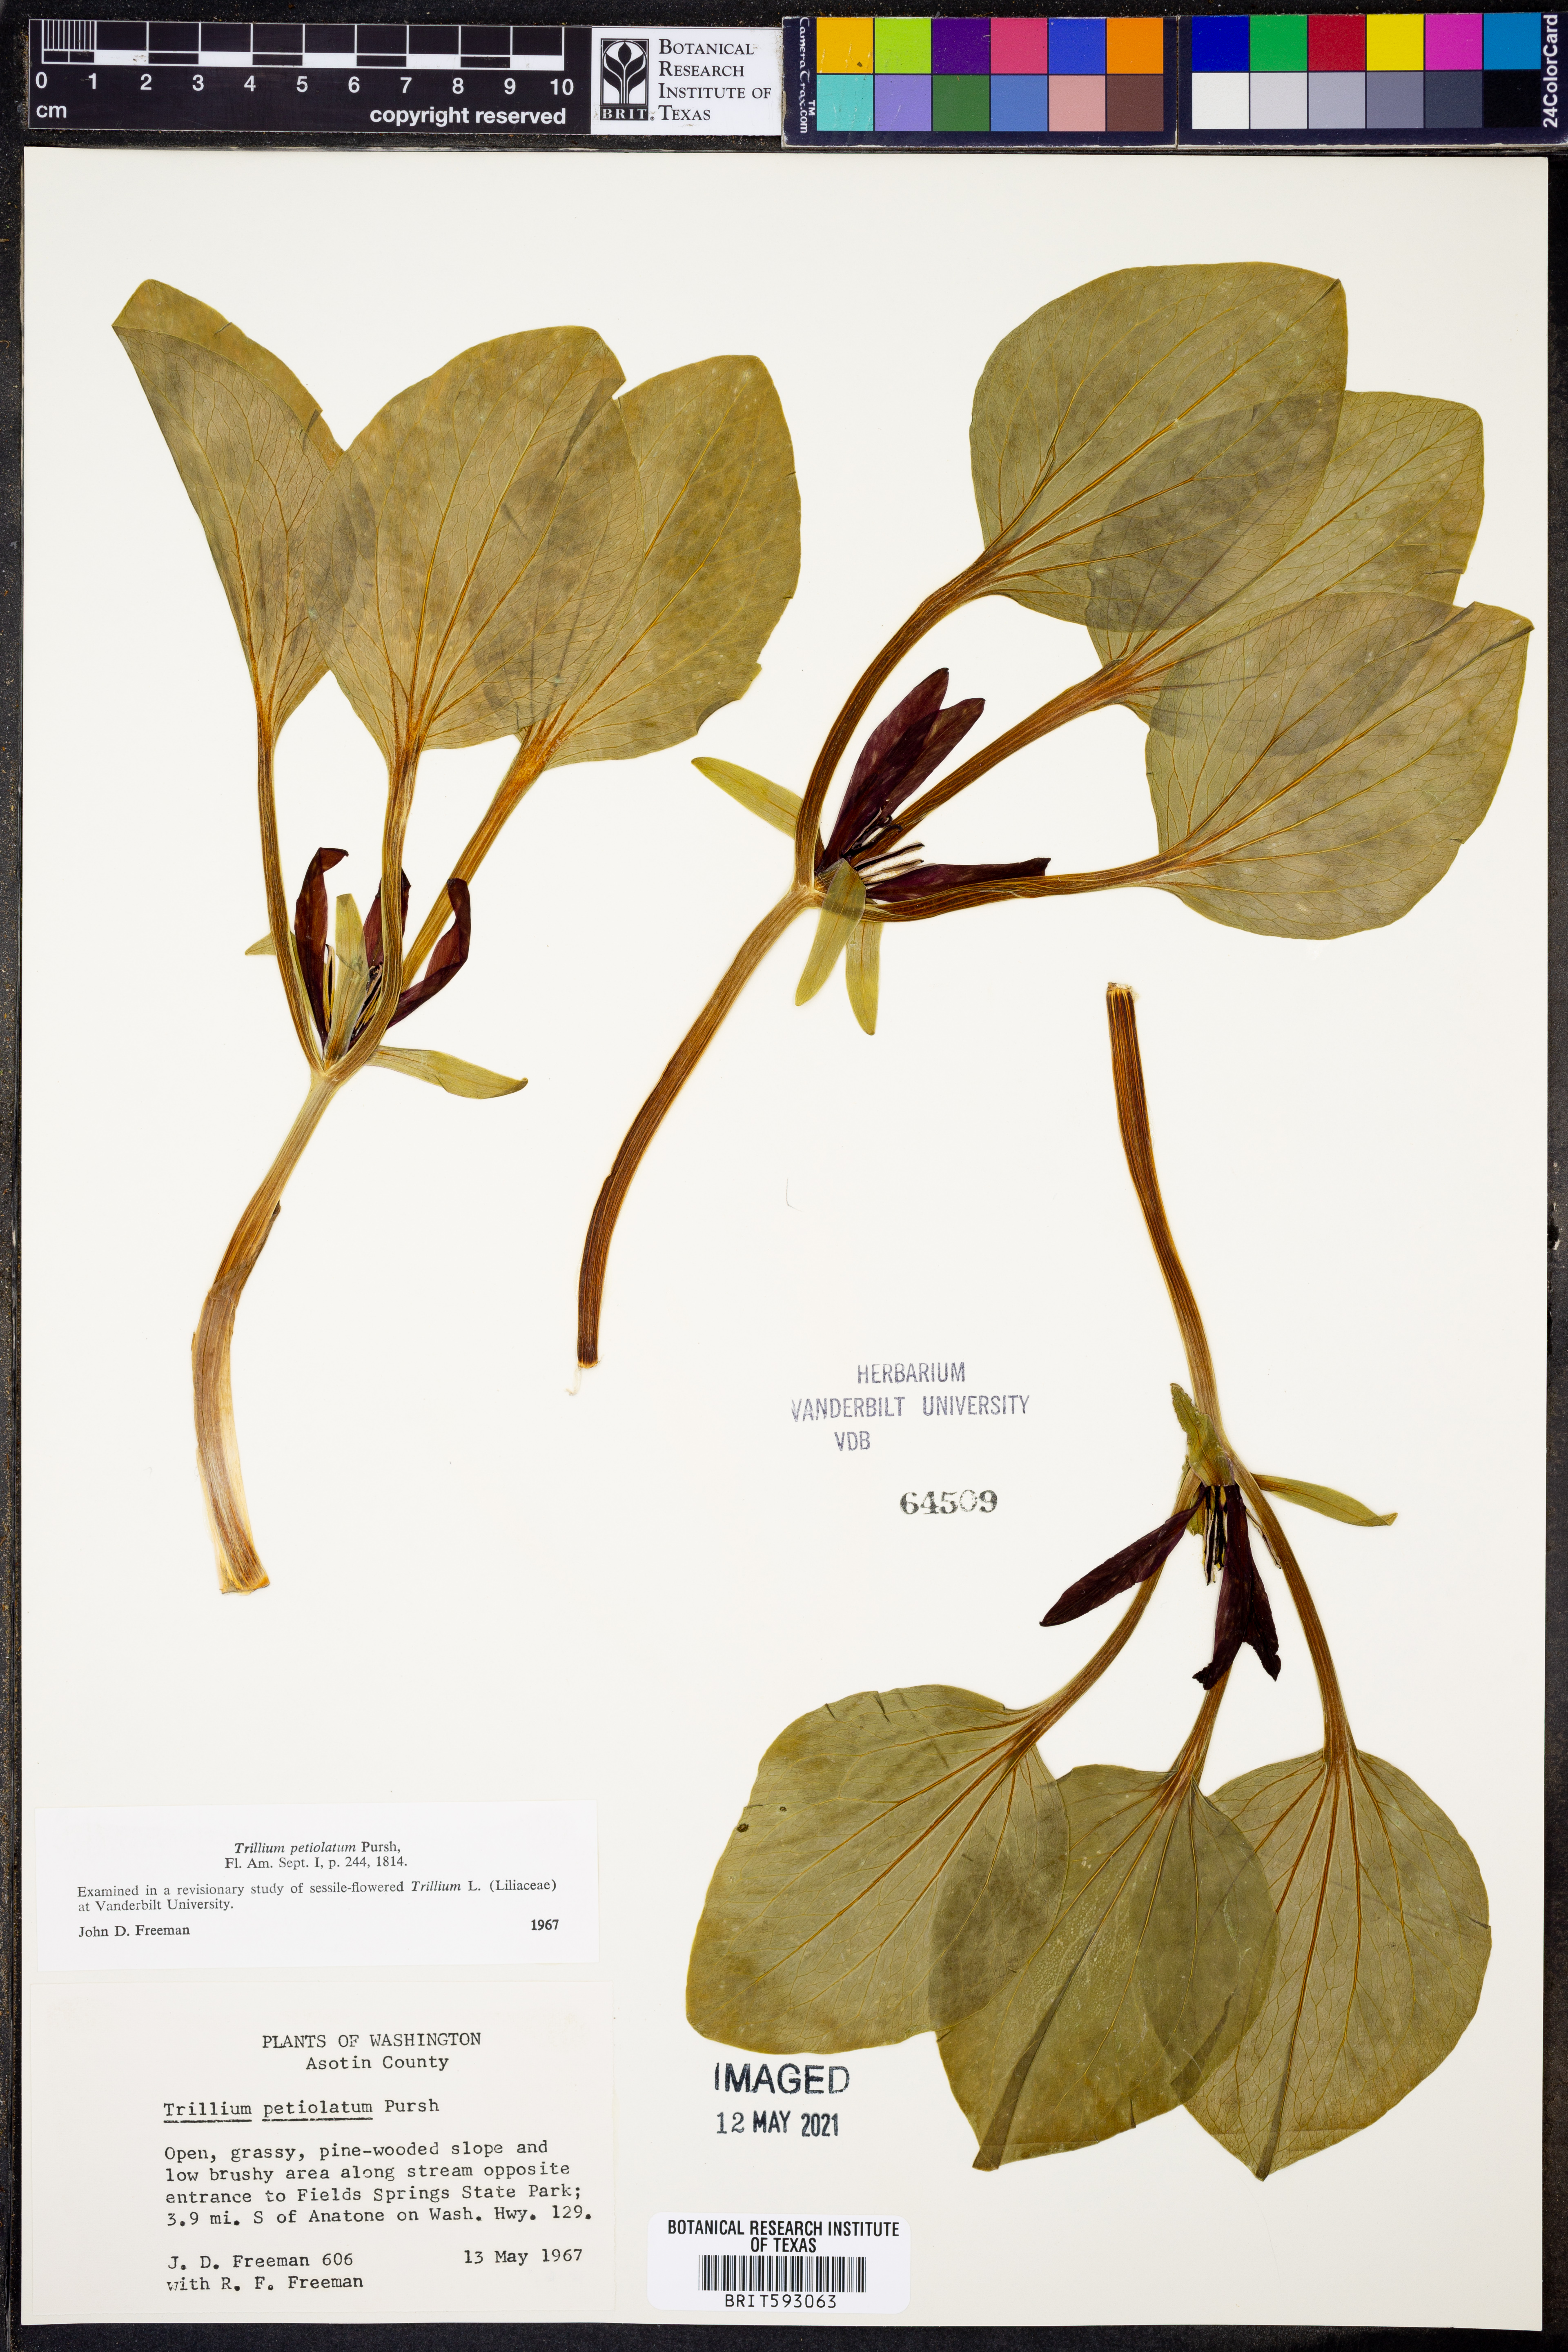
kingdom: Plantae
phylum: Tracheophyta
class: Liliopsida
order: Liliales
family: Melanthiaceae
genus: Trillium
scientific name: Trillium petiolatum
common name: Idaho trillium
